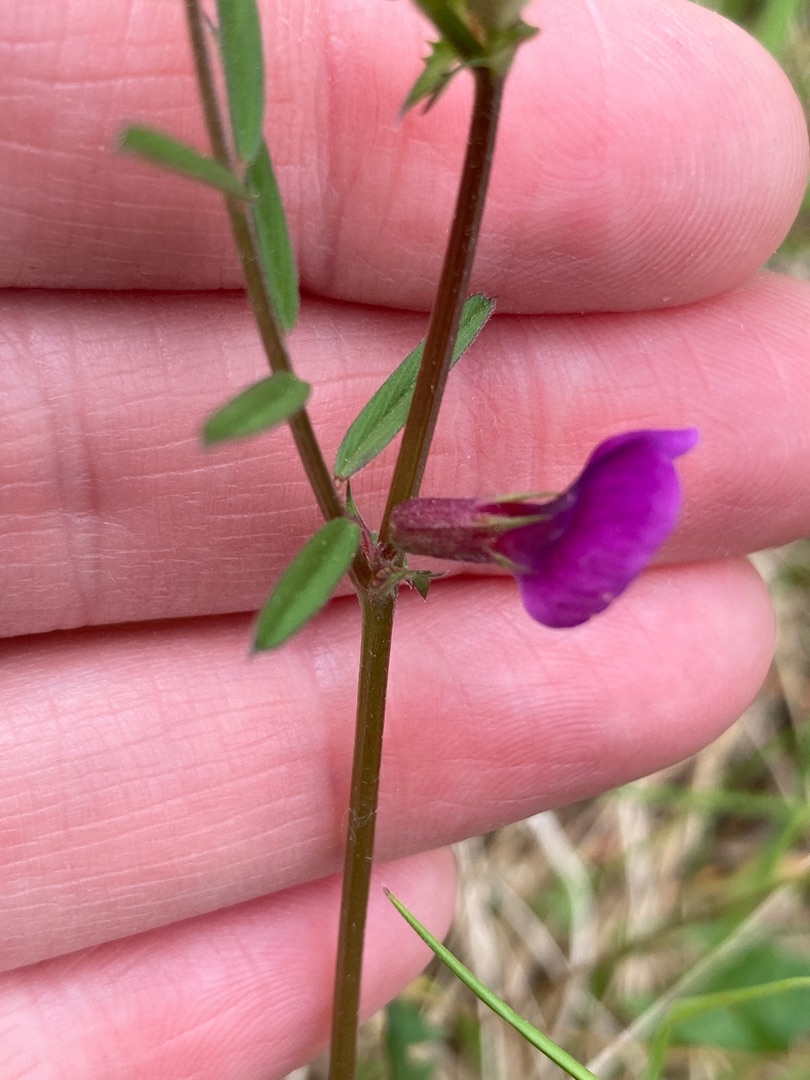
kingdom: Plantae
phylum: Tracheophyta
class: Magnoliopsida
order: Fabales
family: Fabaceae
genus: Vicia
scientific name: Vicia sativa
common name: Smalbladet vikke
